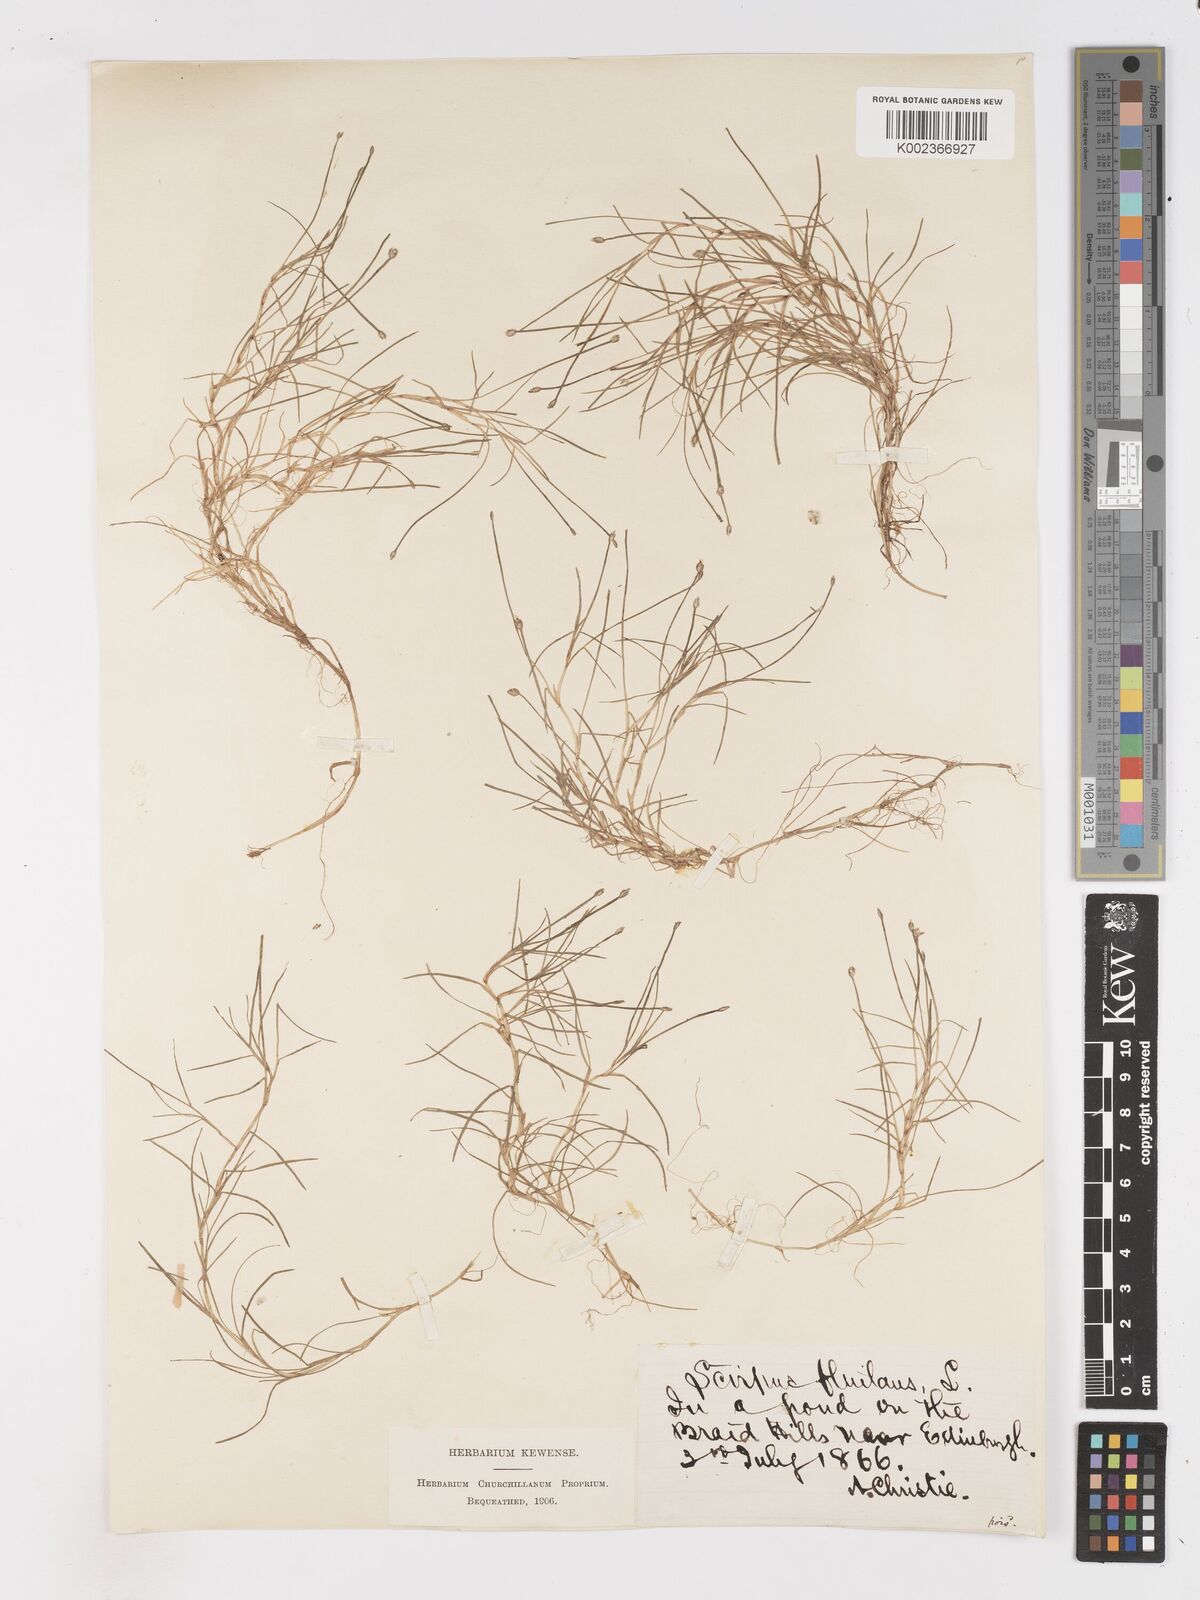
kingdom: Plantae
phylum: Tracheophyta
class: Liliopsida
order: Poales
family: Cyperaceae
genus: Isolepis
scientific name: Isolepis fluitans
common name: Floating club-rush
